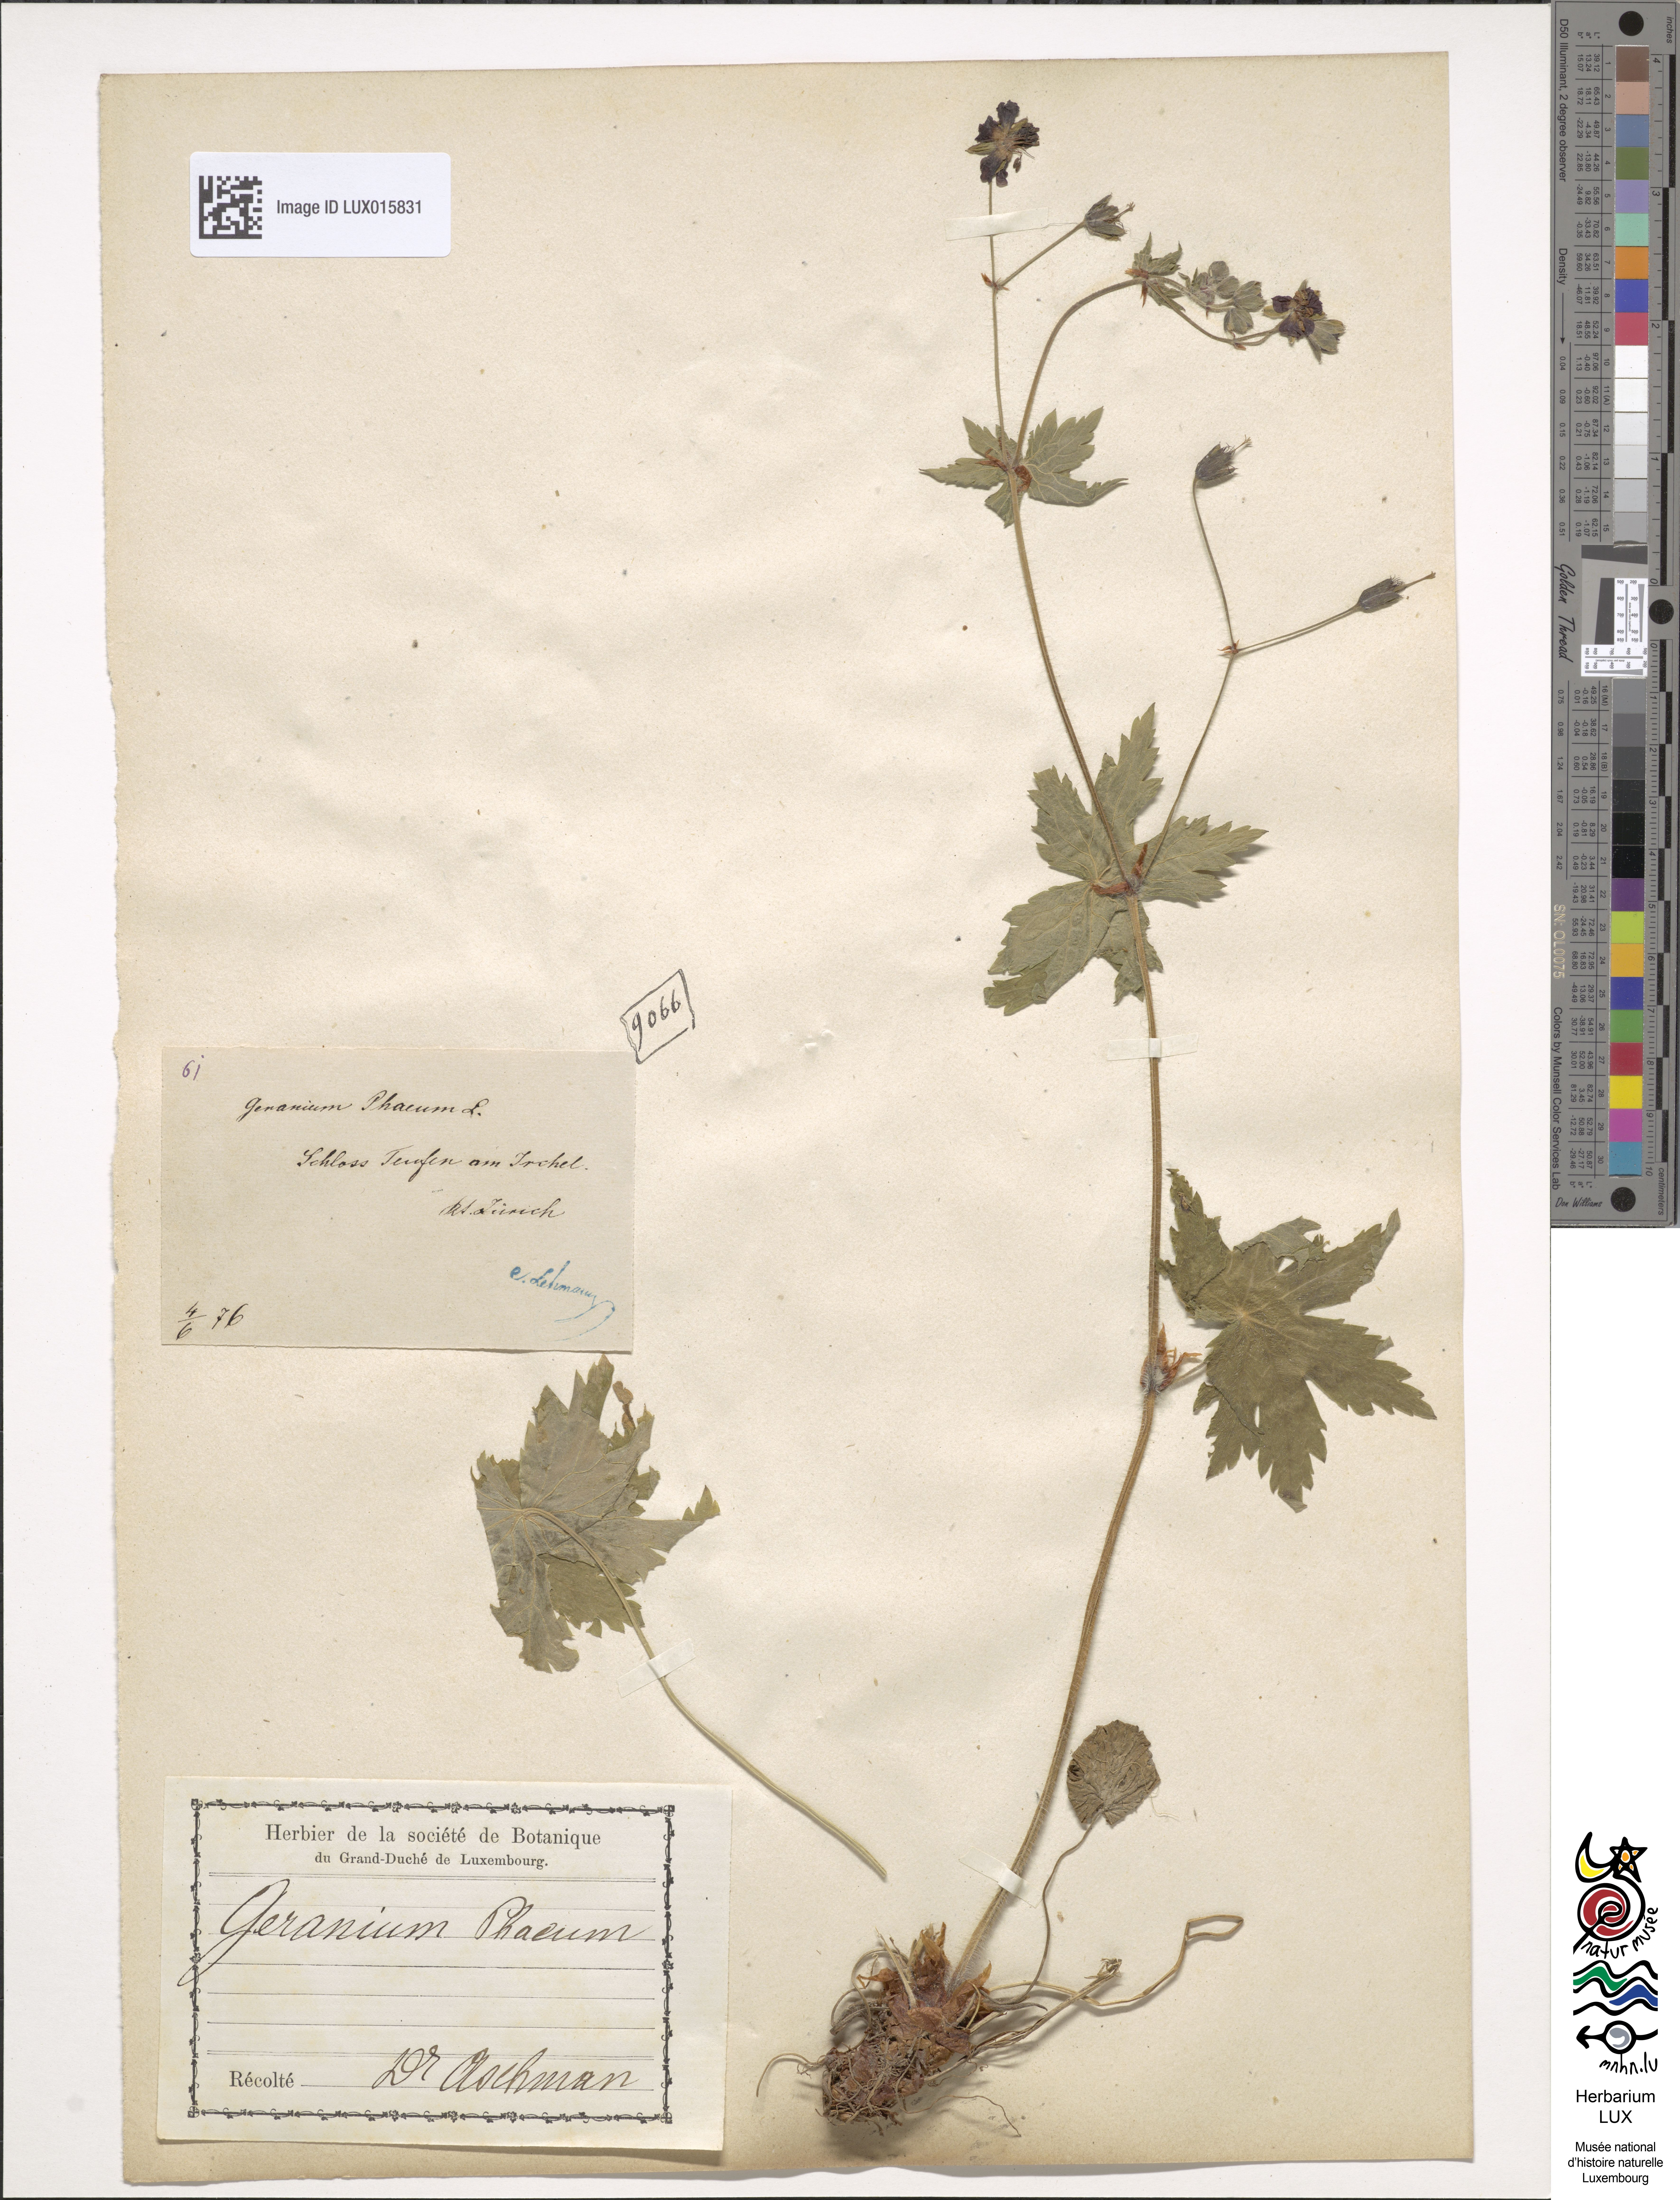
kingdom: Plantae
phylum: Tracheophyta
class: Magnoliopsida
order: Geraniales
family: Geraniaceae
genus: Geranium
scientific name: Geranium phaeum
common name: Dusky crane's-bill
